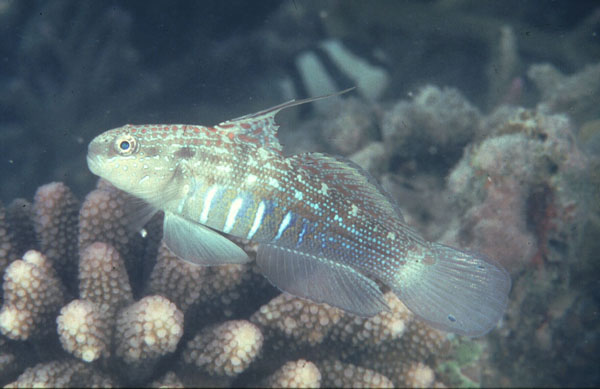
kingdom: Animalia
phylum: Chordata
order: Perciformes
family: Gobiidae
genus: Amblygobius
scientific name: Amblygobius semicinctus
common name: Halfbarred goby
